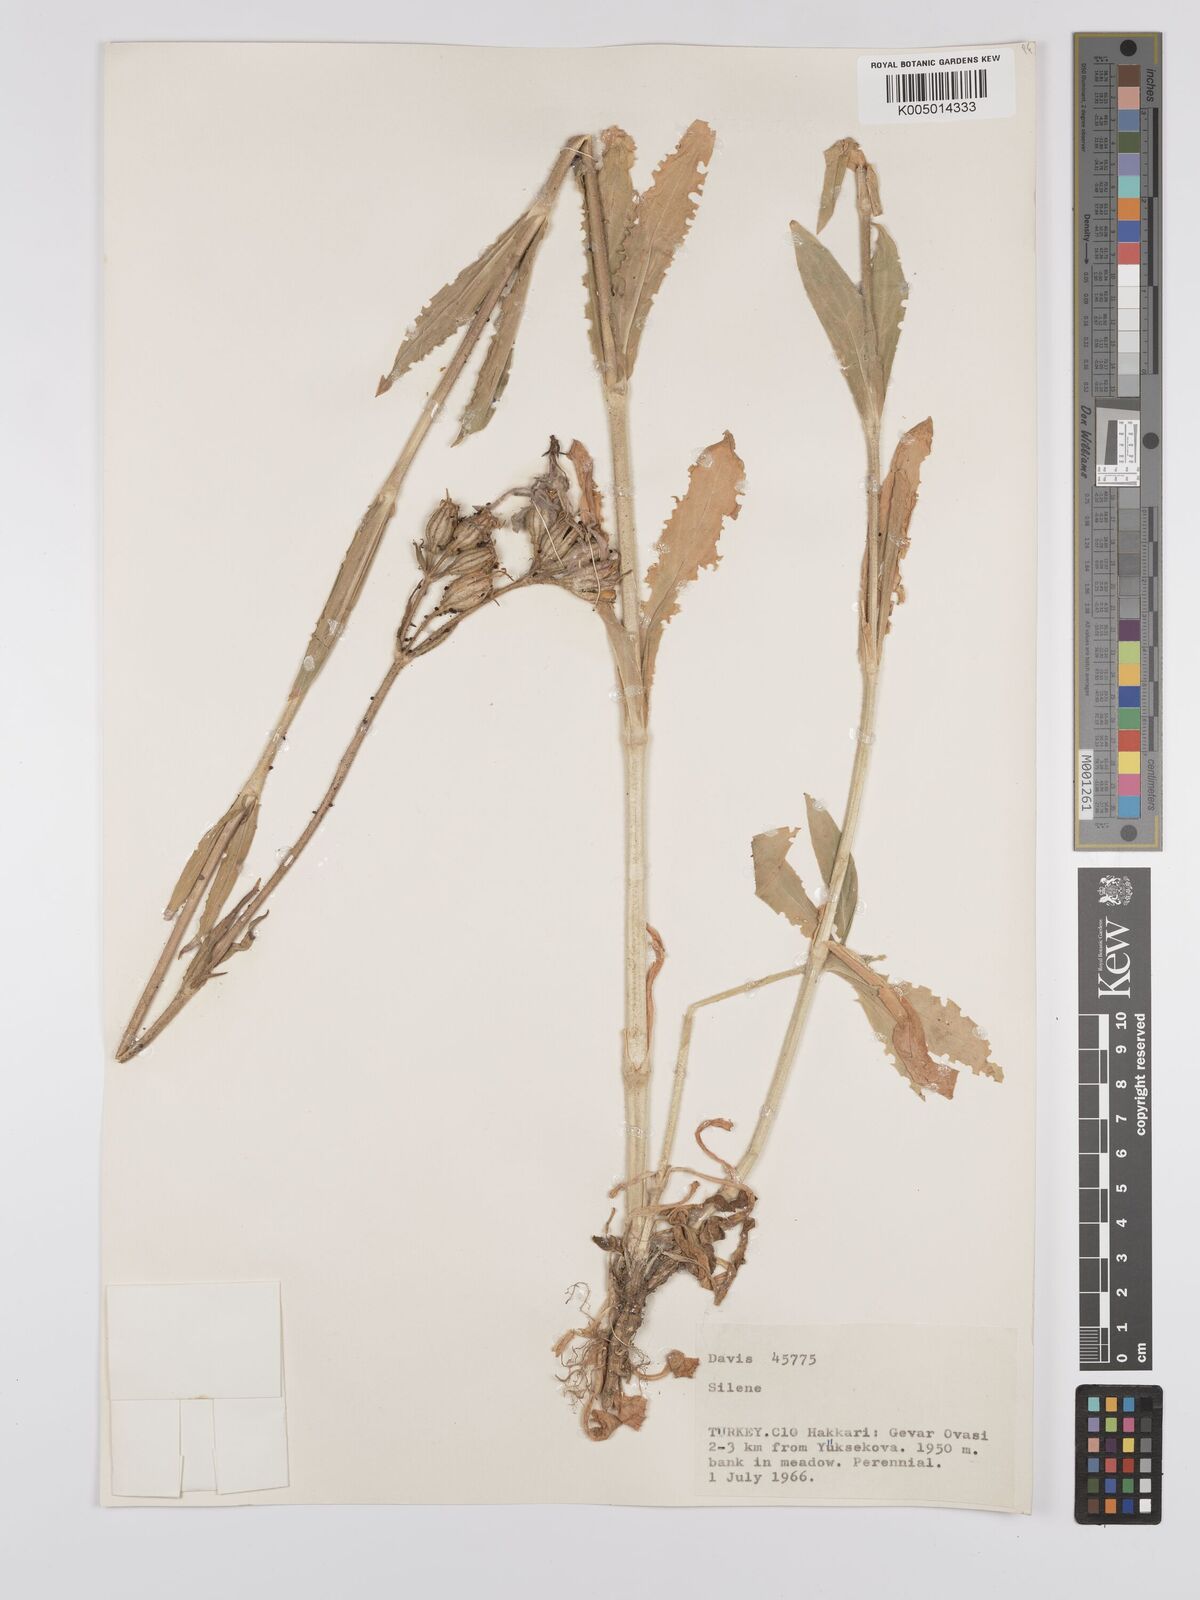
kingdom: Plantae
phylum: Tracheophyta
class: Magnoliopsida
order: Caryophyllales
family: Caryophyllaceae
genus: Silene
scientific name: Silene
